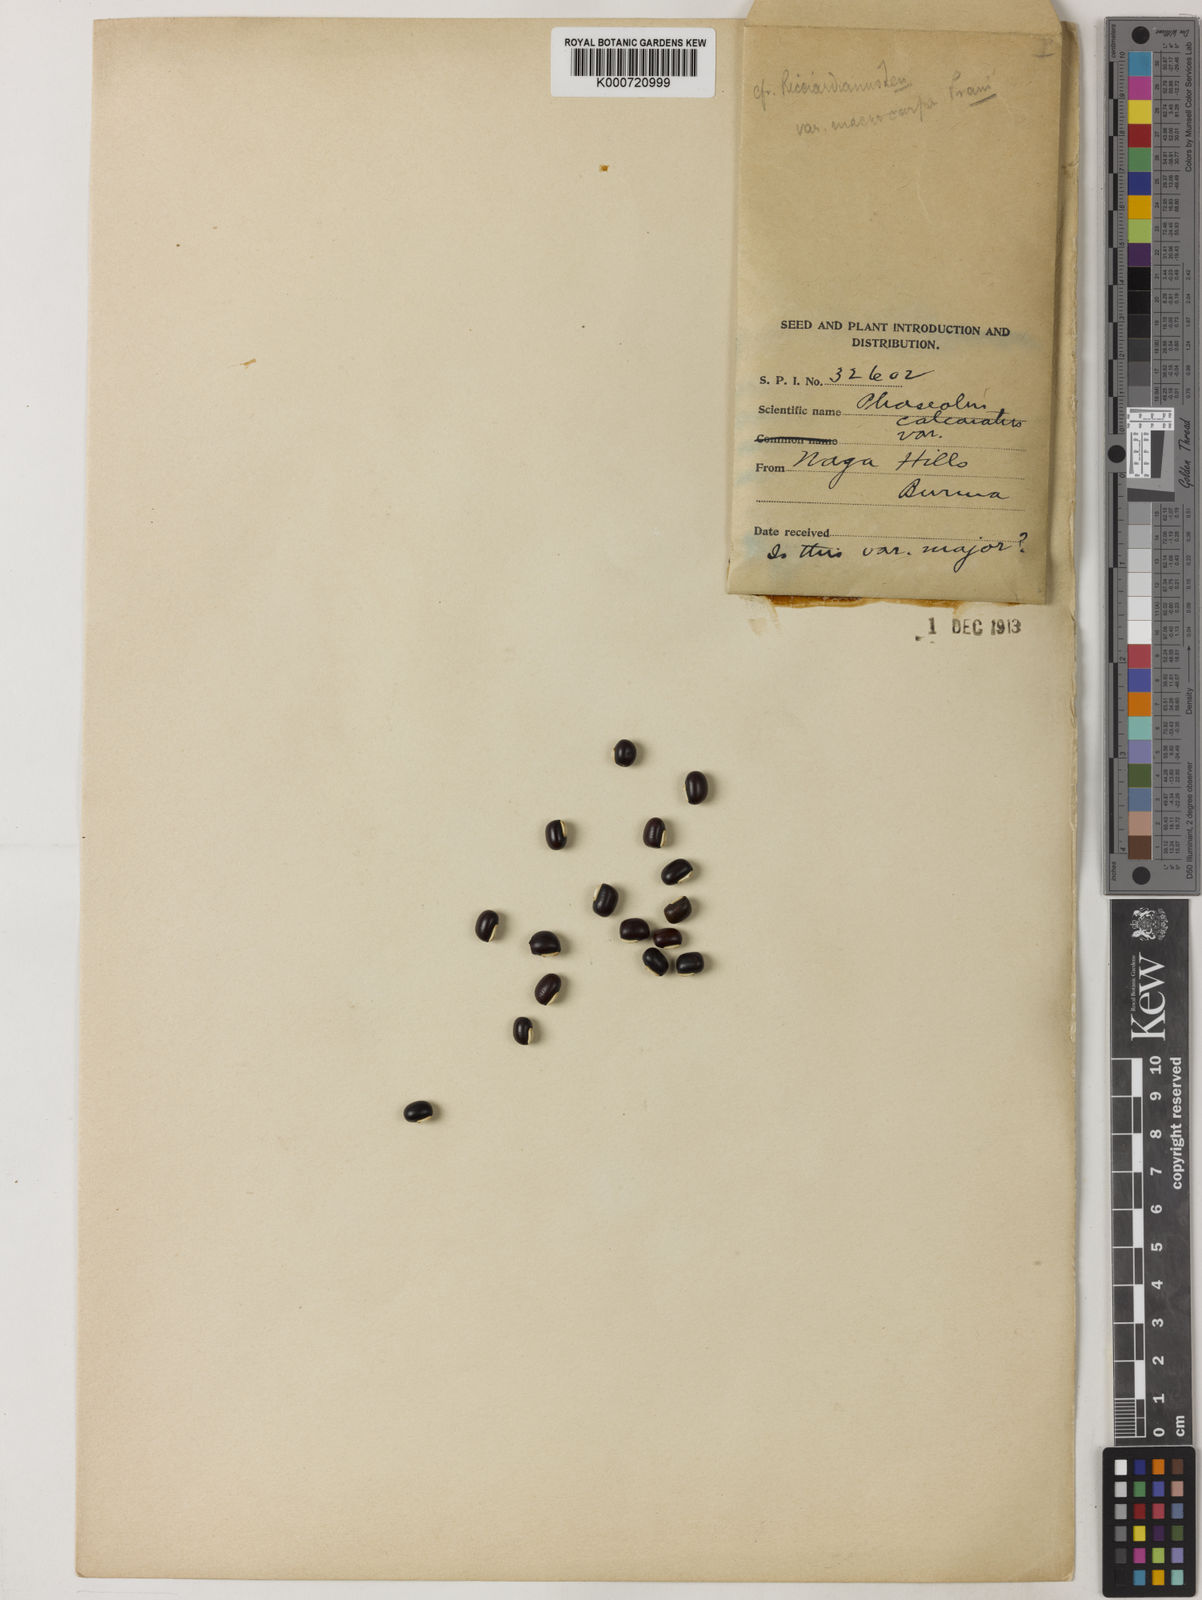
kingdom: Plantae
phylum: Tracheophyta
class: Magnoliopsida
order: Fabales
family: Fabaceae
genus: Vigna
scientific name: Vigna umbellata
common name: Oriental-bean
